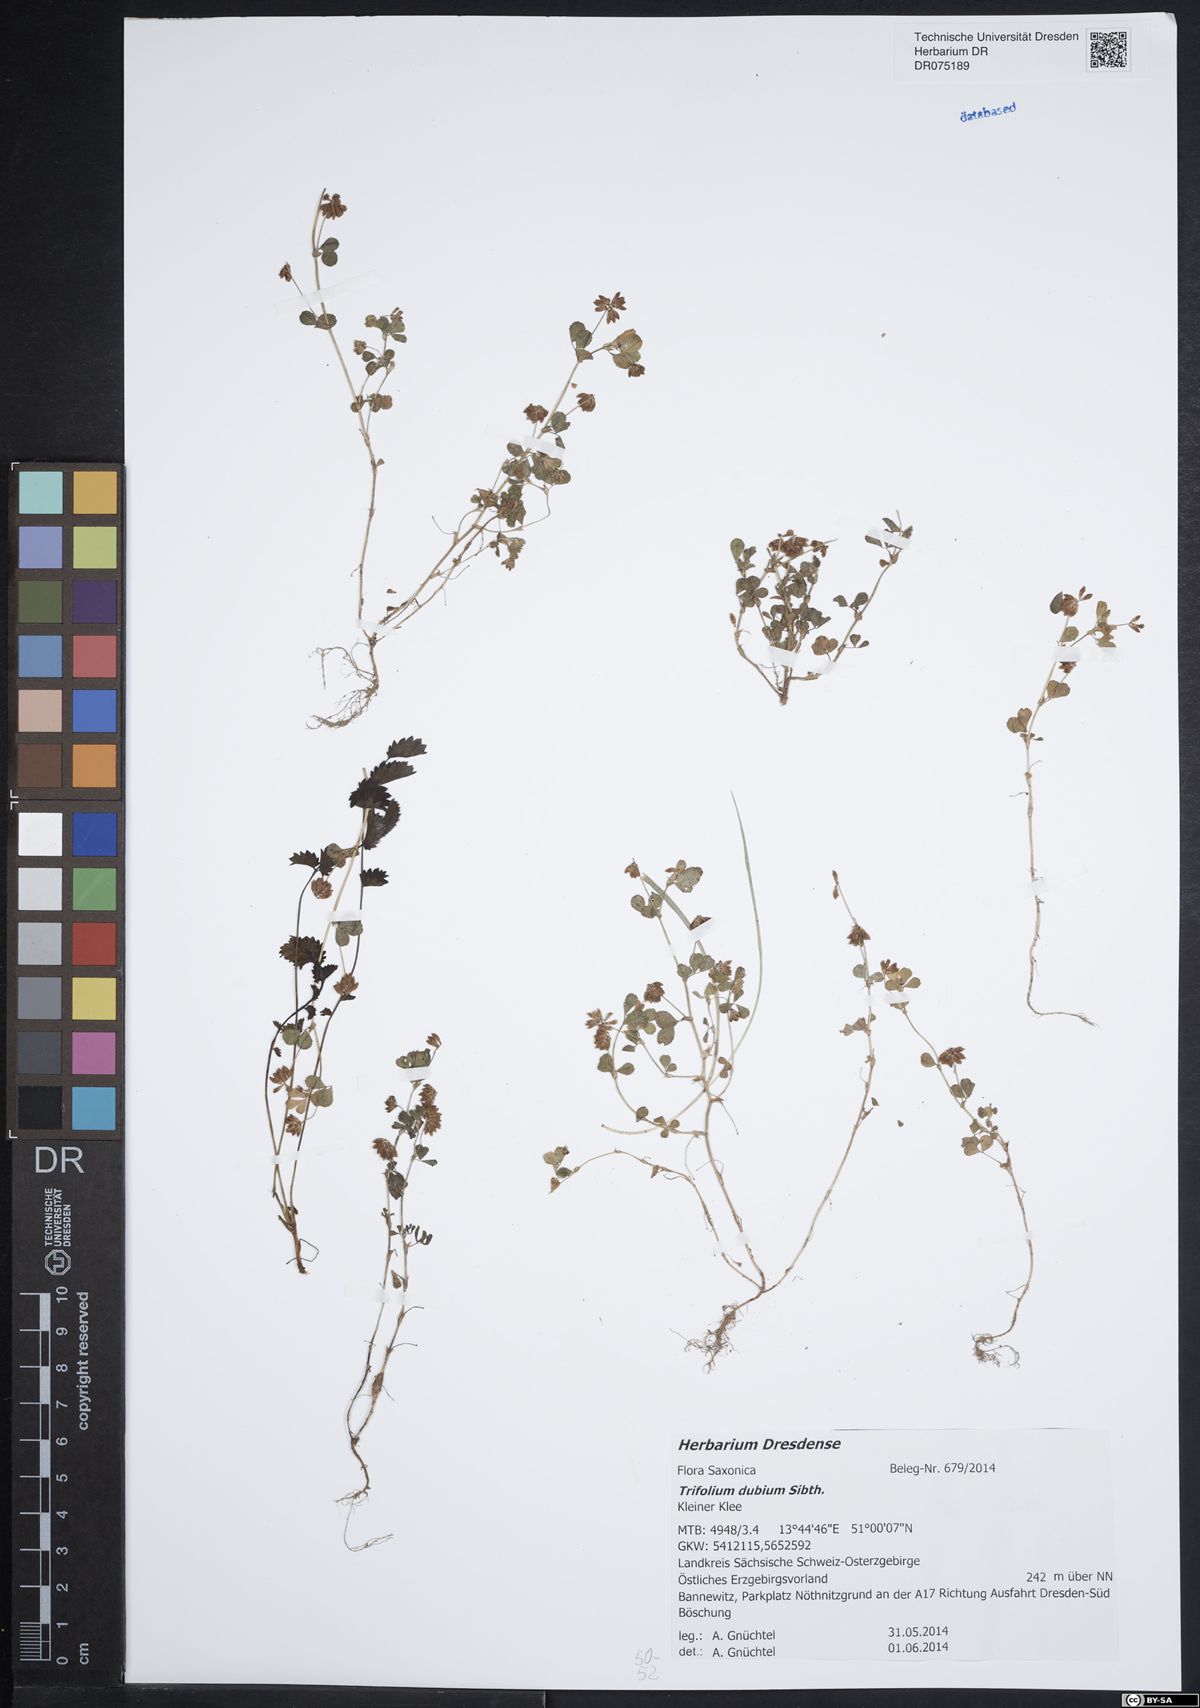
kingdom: Plantae
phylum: Tracheophyta
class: Magnoliopsida
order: Fabales
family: Fabaceae
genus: Trifolium
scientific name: Trifolium dubium
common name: Suckling clover
